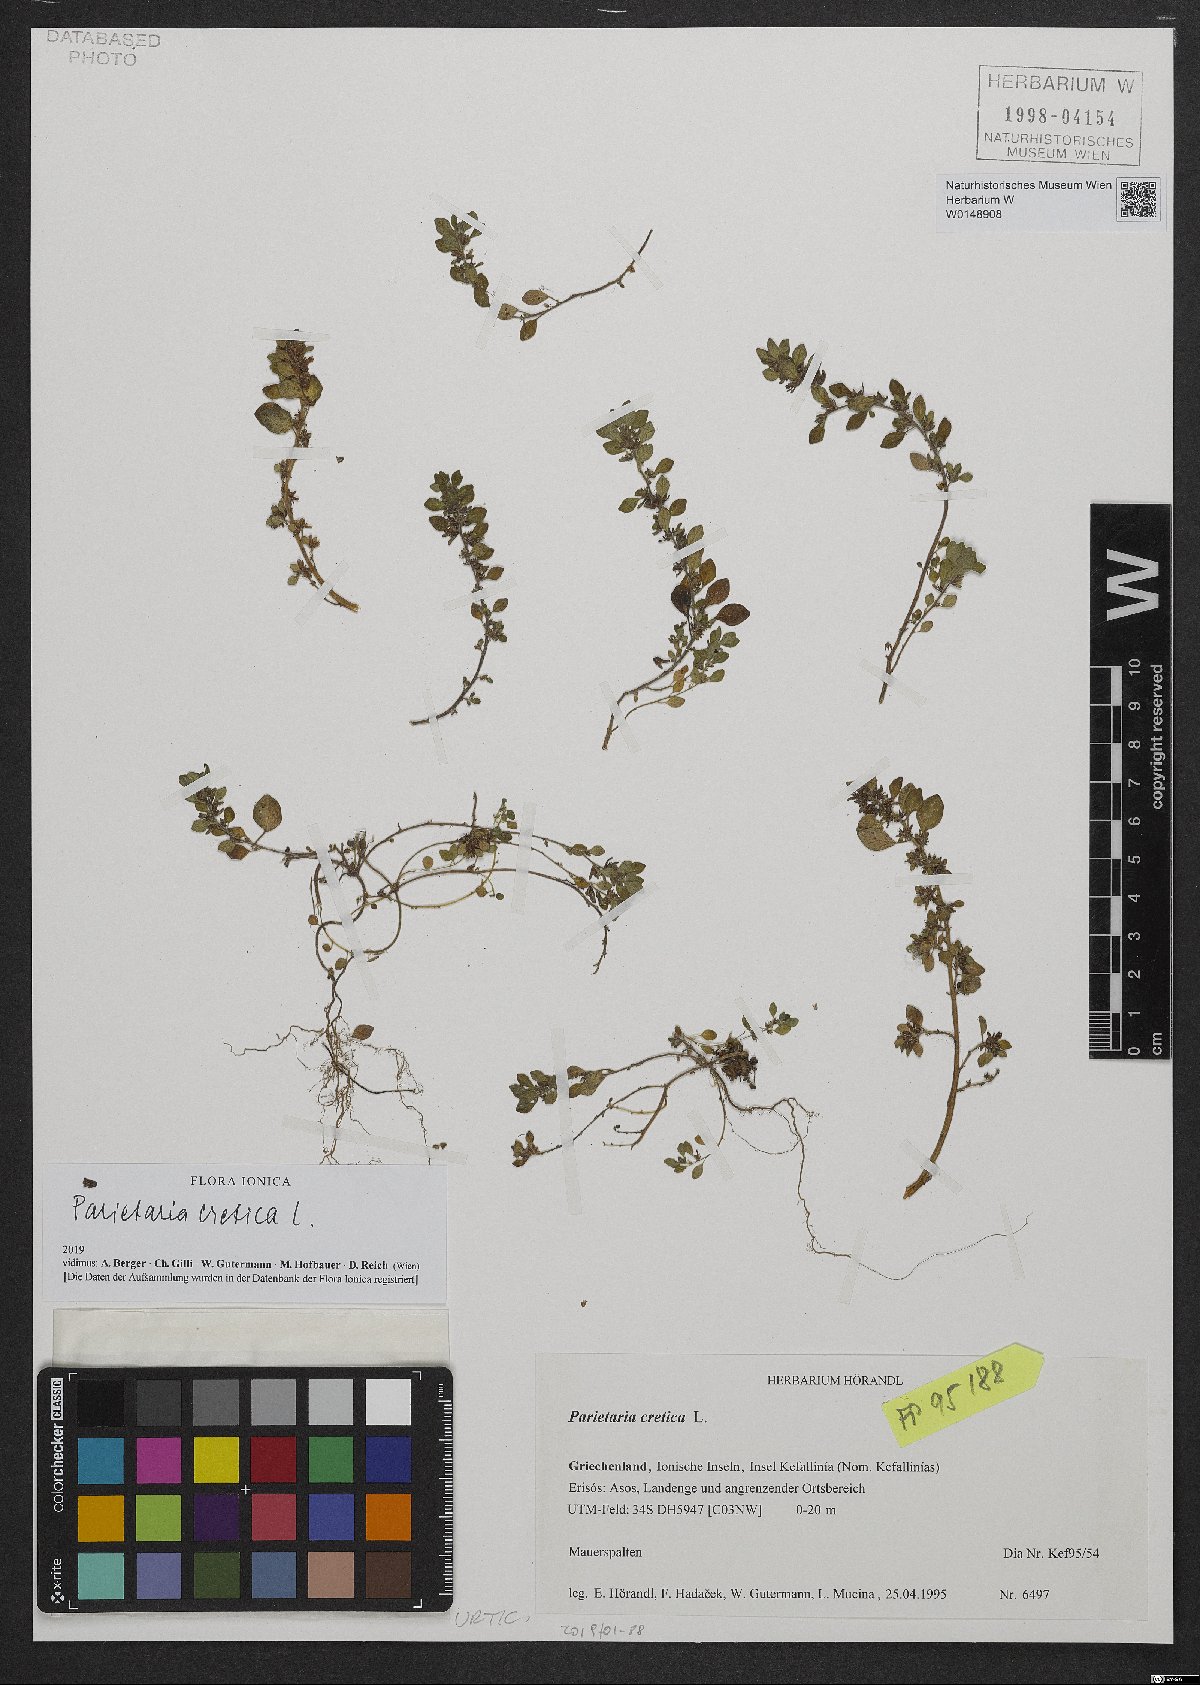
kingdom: Plantae
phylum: Tracheophyta
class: Magnoliopsida
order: Rosales
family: Urticaceae
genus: Parietaria
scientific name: Parietaria cretica
